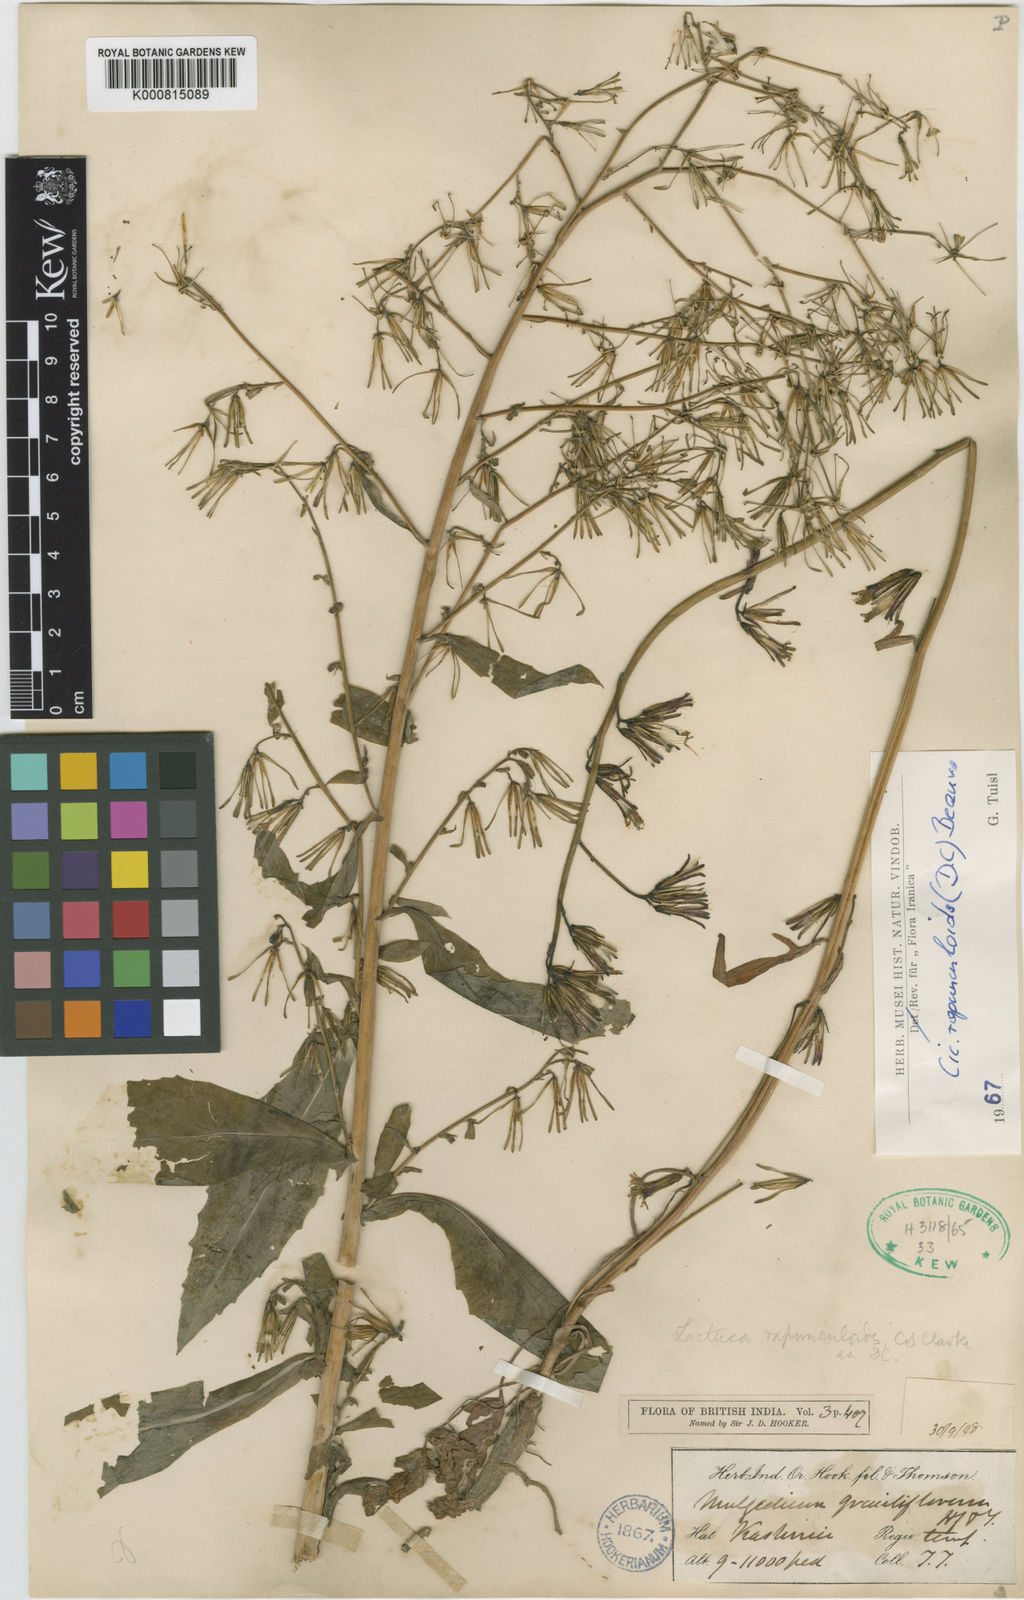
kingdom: Plantae
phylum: Tracheophyta
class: Magnoliopsida
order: Asterales
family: Asteraceae
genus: Kovalevskiella
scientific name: Kovalevskiella rapunculoides
